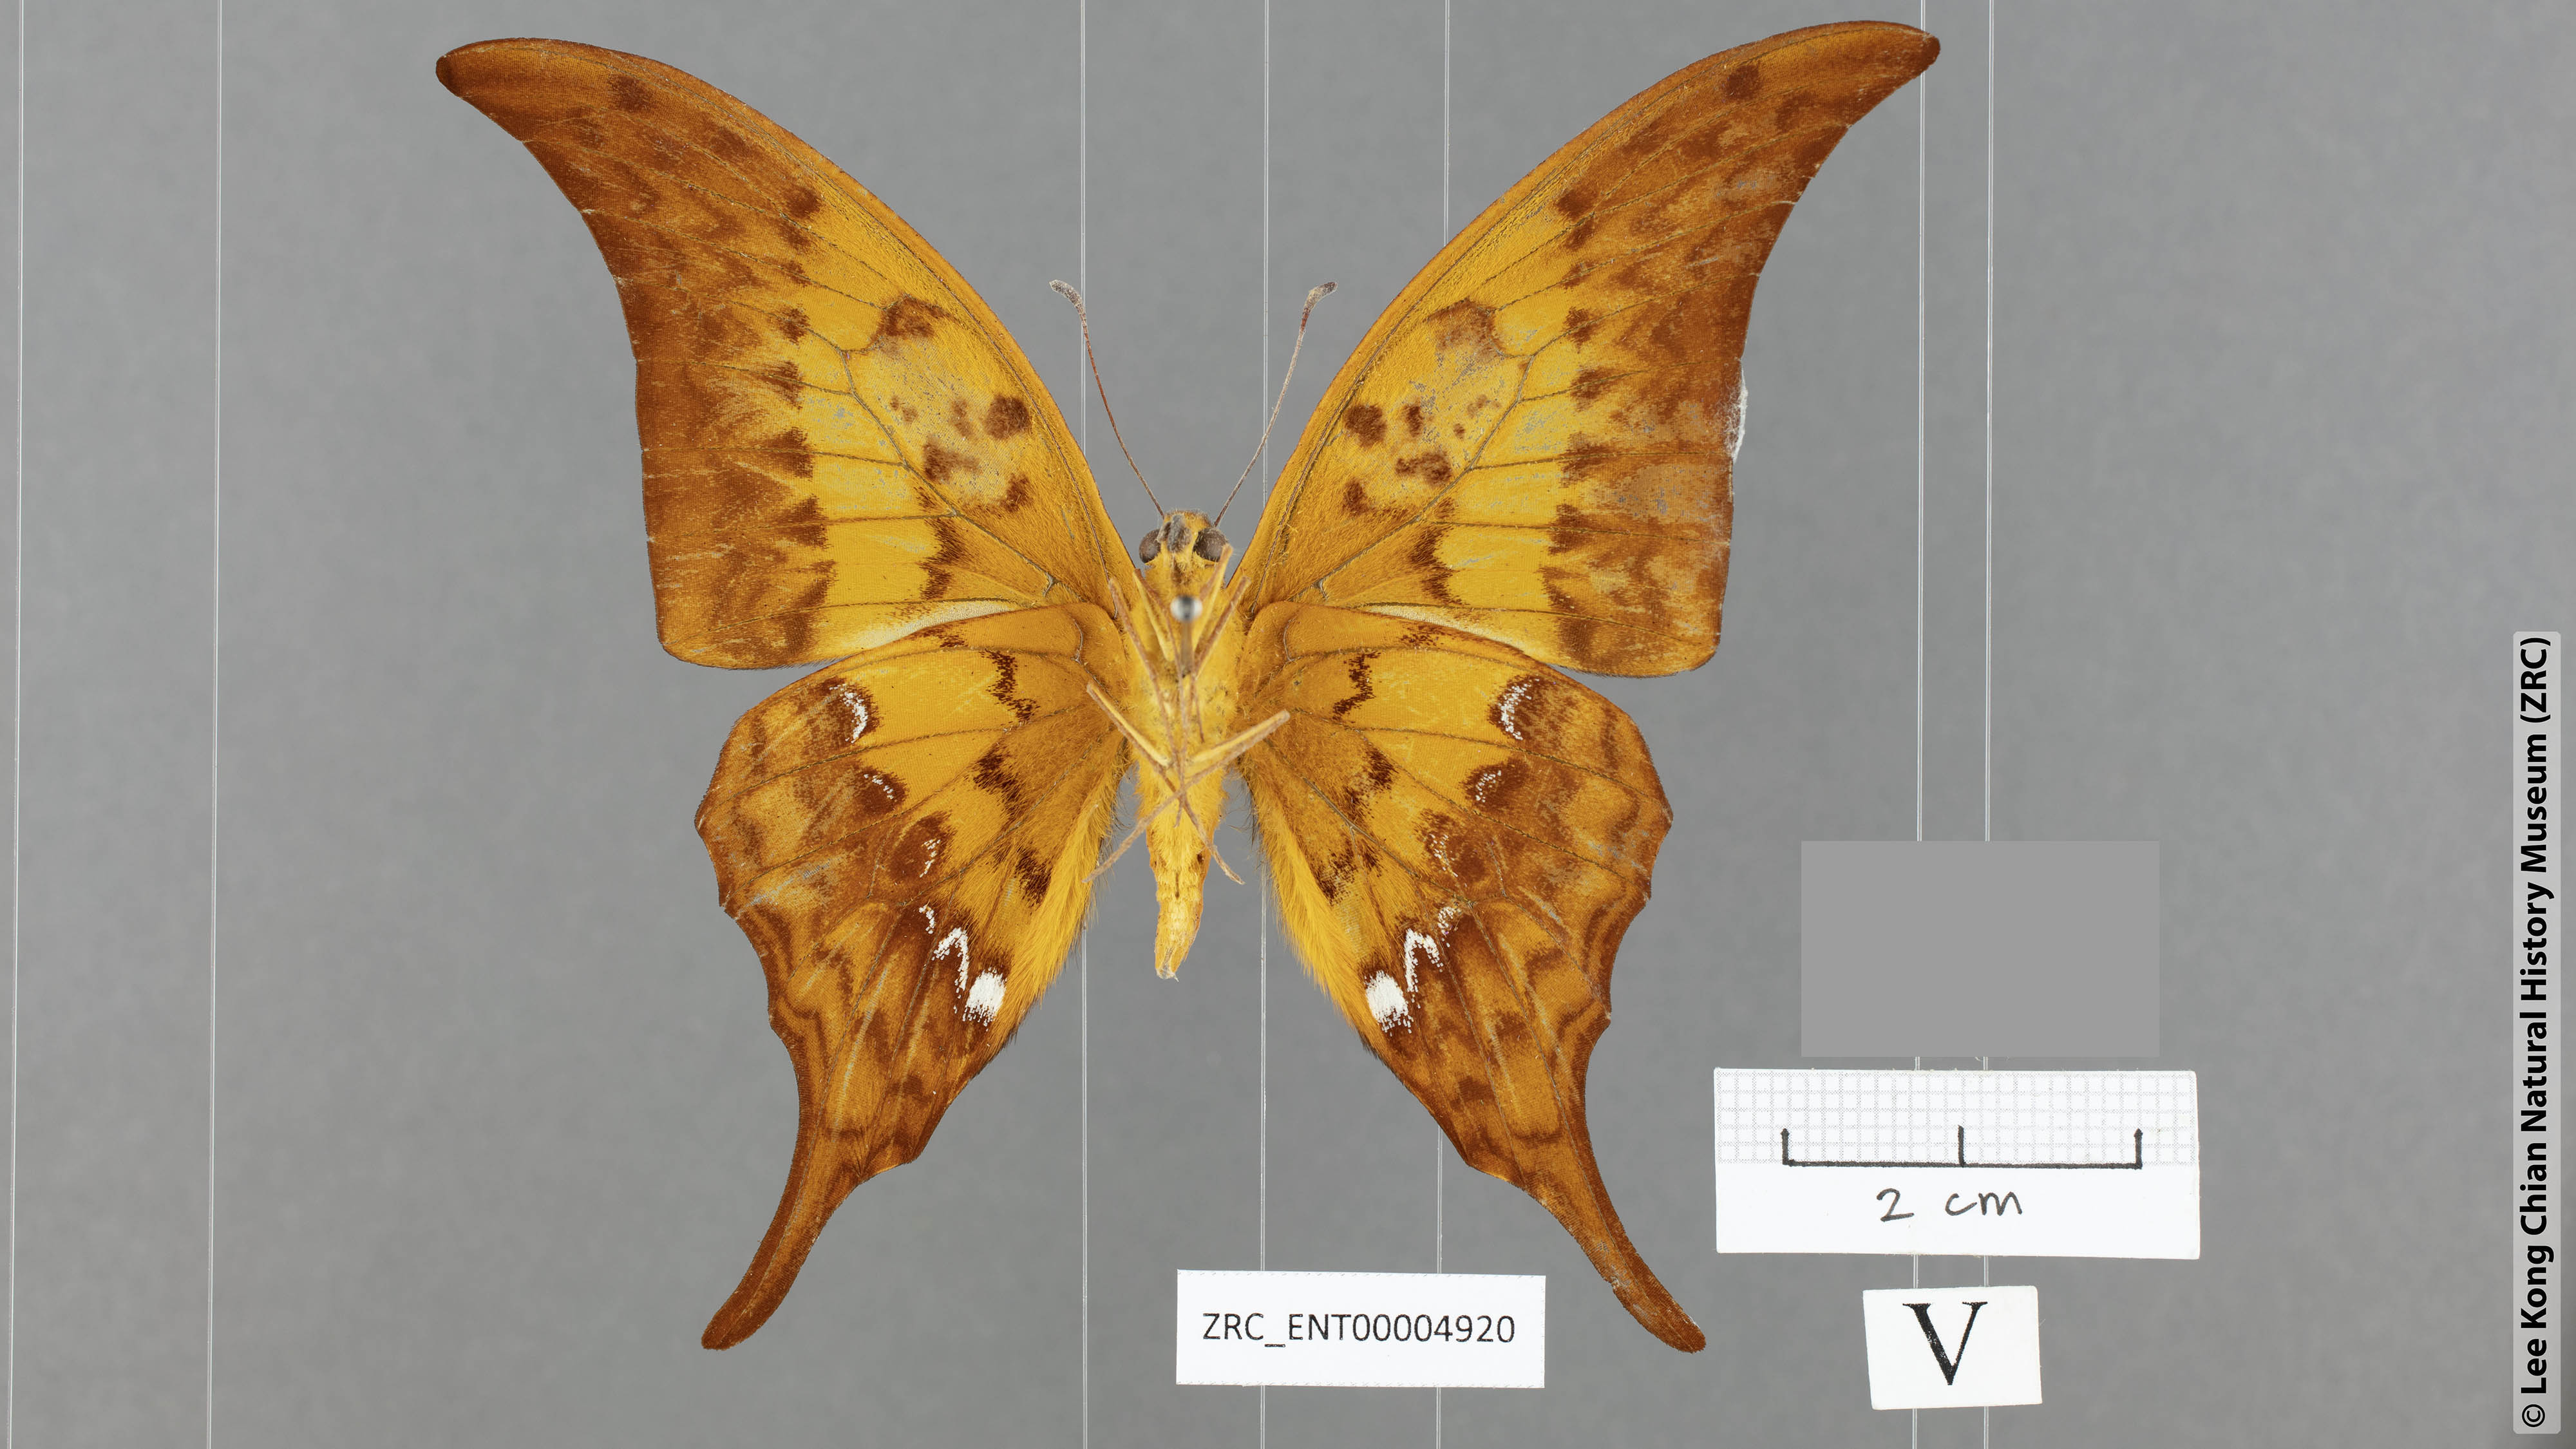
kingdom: Animalia
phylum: Arthropoda
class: Insecta
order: Lepidoptera
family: Papilionidae
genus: Meandrusa
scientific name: Meandrusa payeni
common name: Outlet sword
